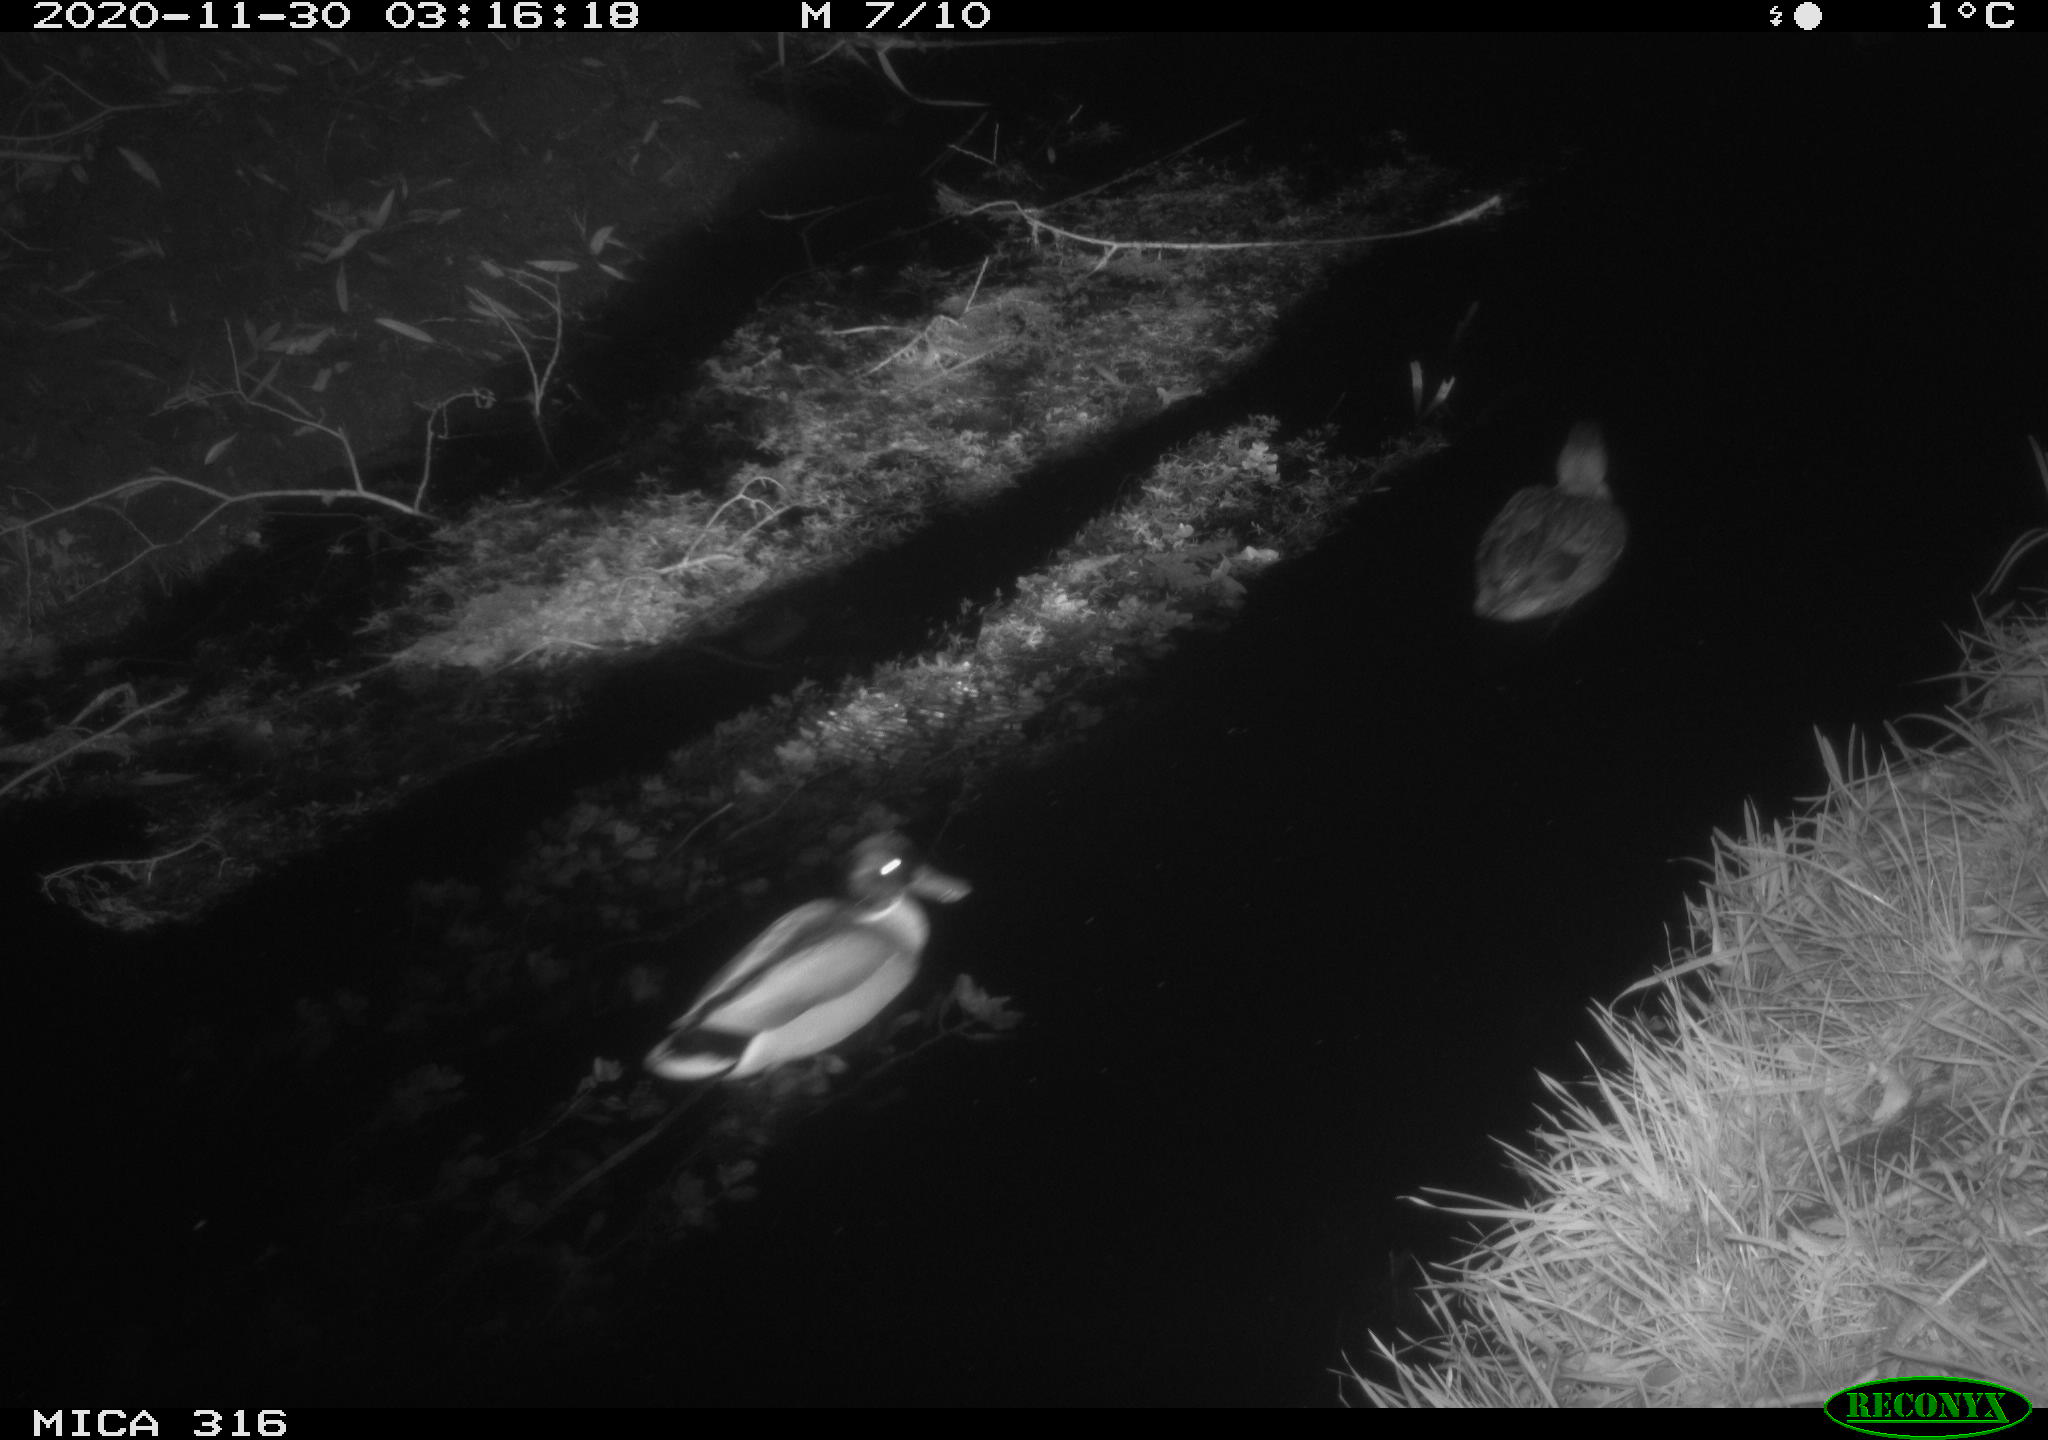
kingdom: Animalia
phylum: Chordata
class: Aves
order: Anseriformes
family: Anatidae
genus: Anas
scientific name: Anas platyrhynchos
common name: Mallard
